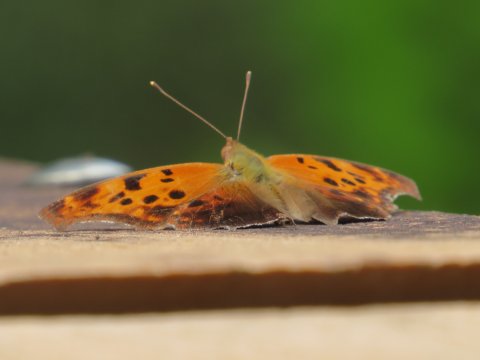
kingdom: Animalia
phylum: Arthropoda
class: Insecta
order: Lepidoptera
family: Nymphalidae
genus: Polygonia
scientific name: Polygonia interrogationis
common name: Question Mark
